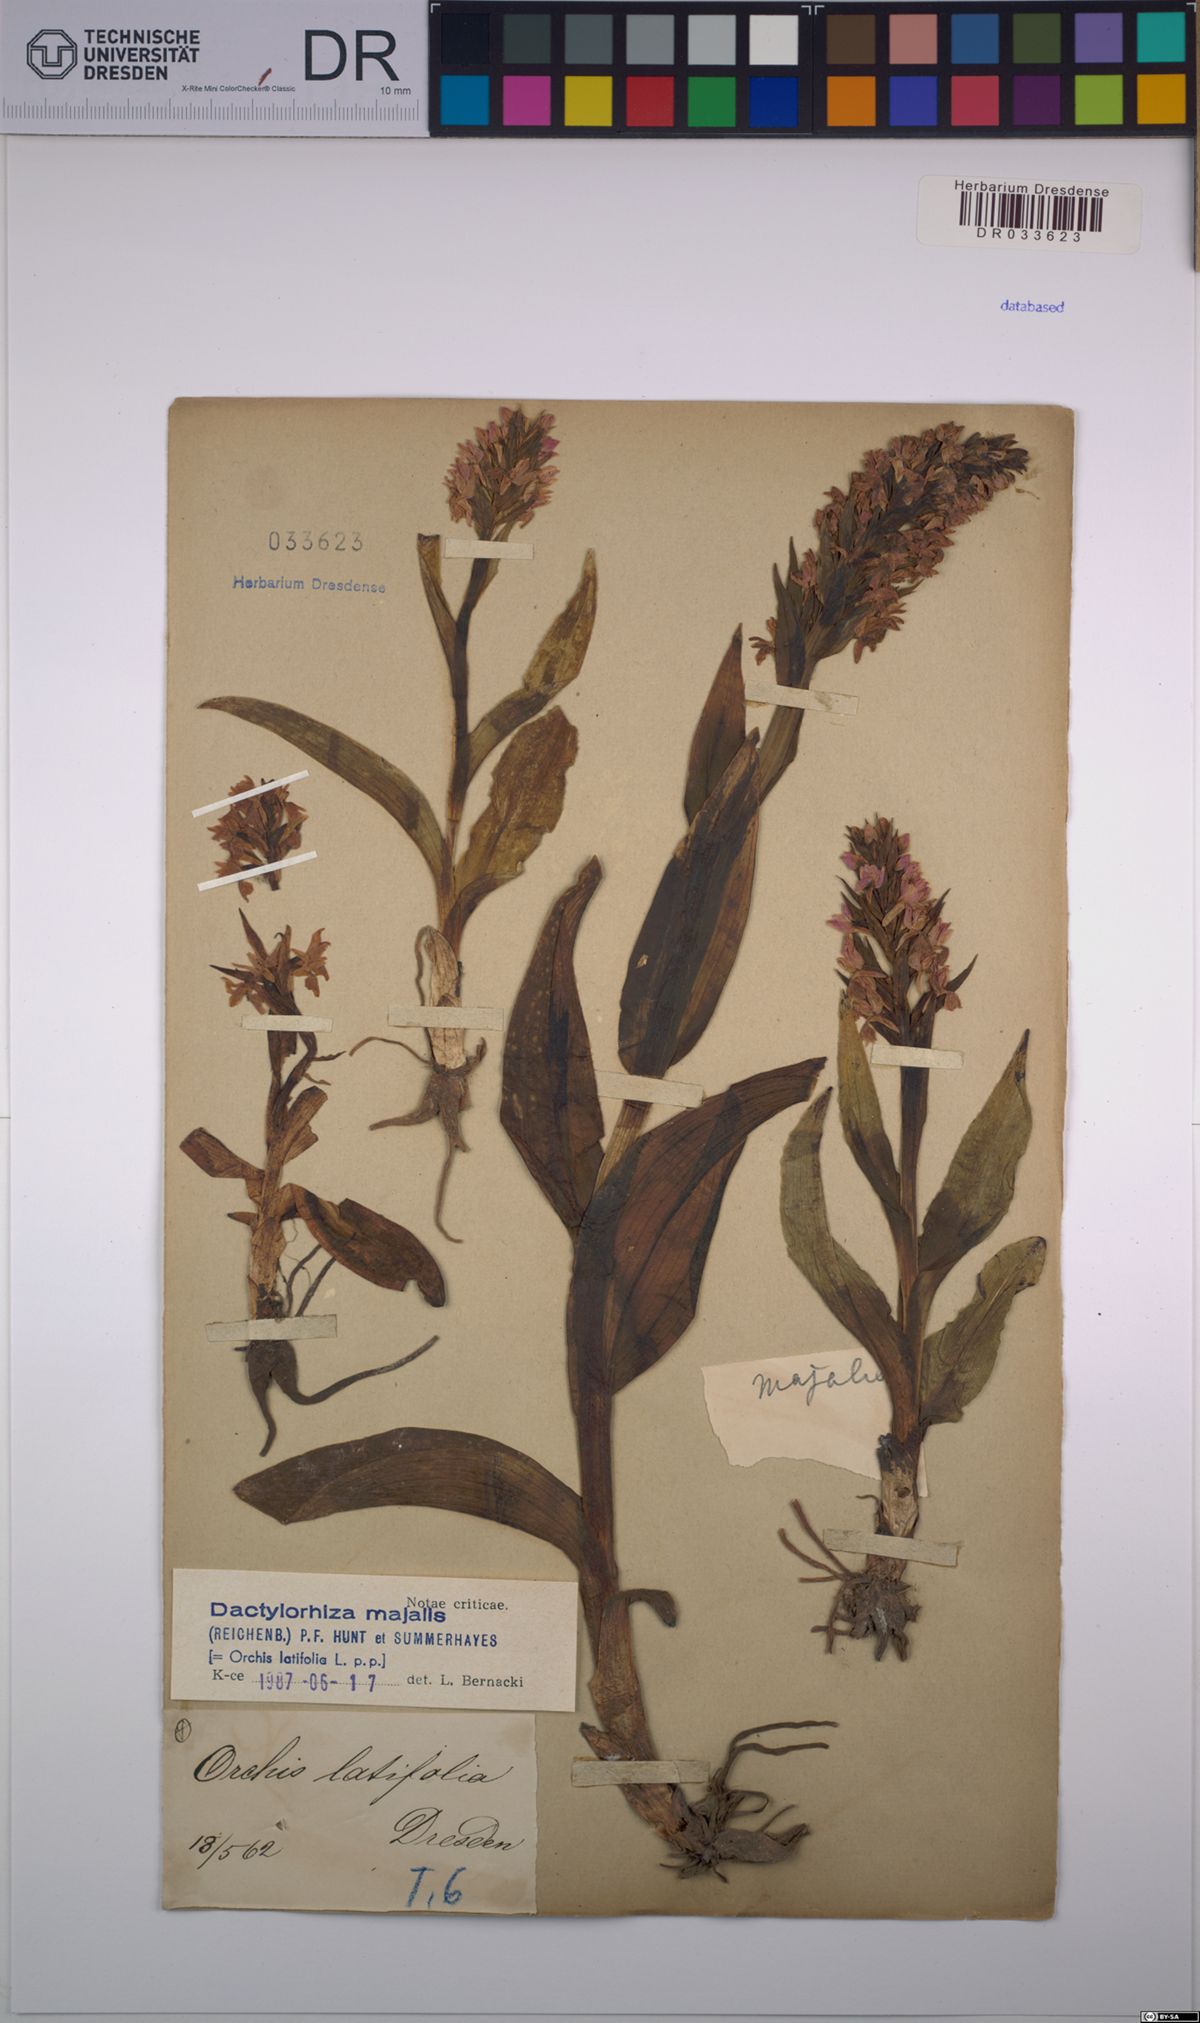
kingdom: Plantae
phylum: Tracheophyta
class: Liliopsida
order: Asparagales
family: Orchidaceae
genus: Dactylorhiza
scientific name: Dactylorhiza majalis
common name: Marsh orchid
